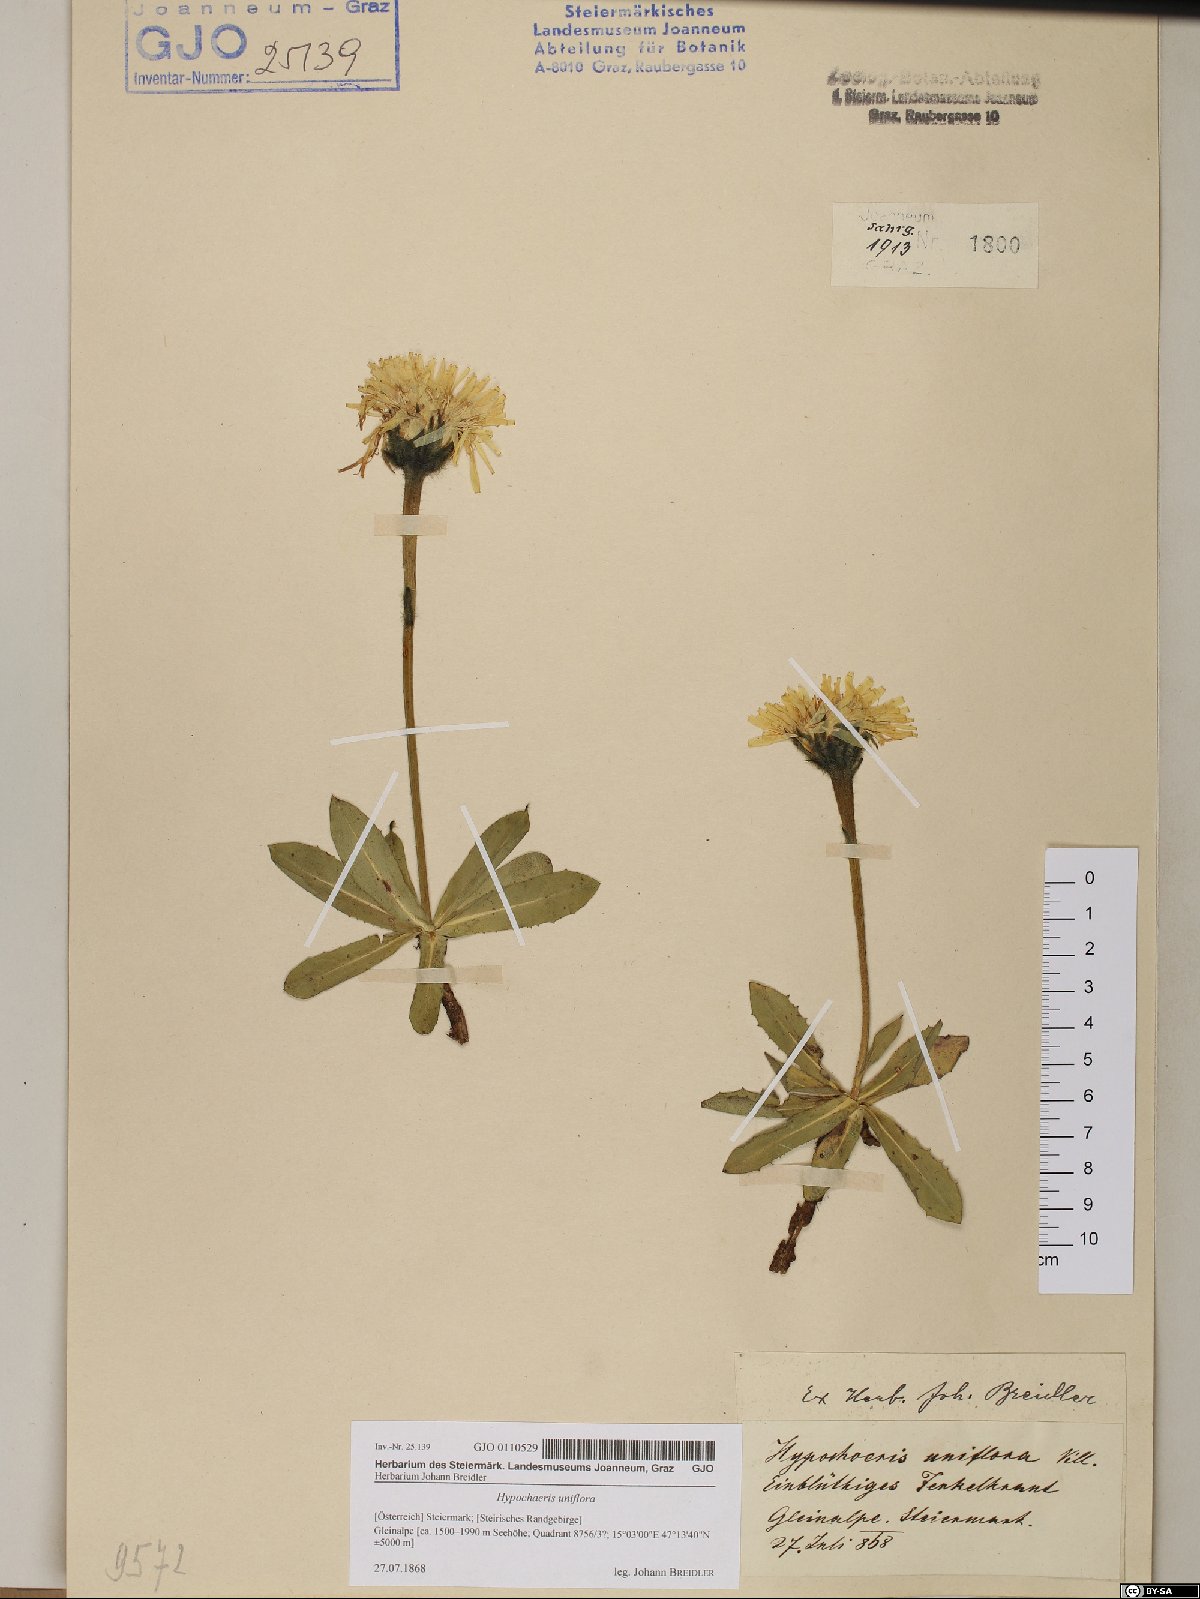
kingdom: Plantae
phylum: Tracheophyta
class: Magnoliopsida
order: Asterales
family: Asteraceae
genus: Trommsdorffia
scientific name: Trommsdorffia uniflora
